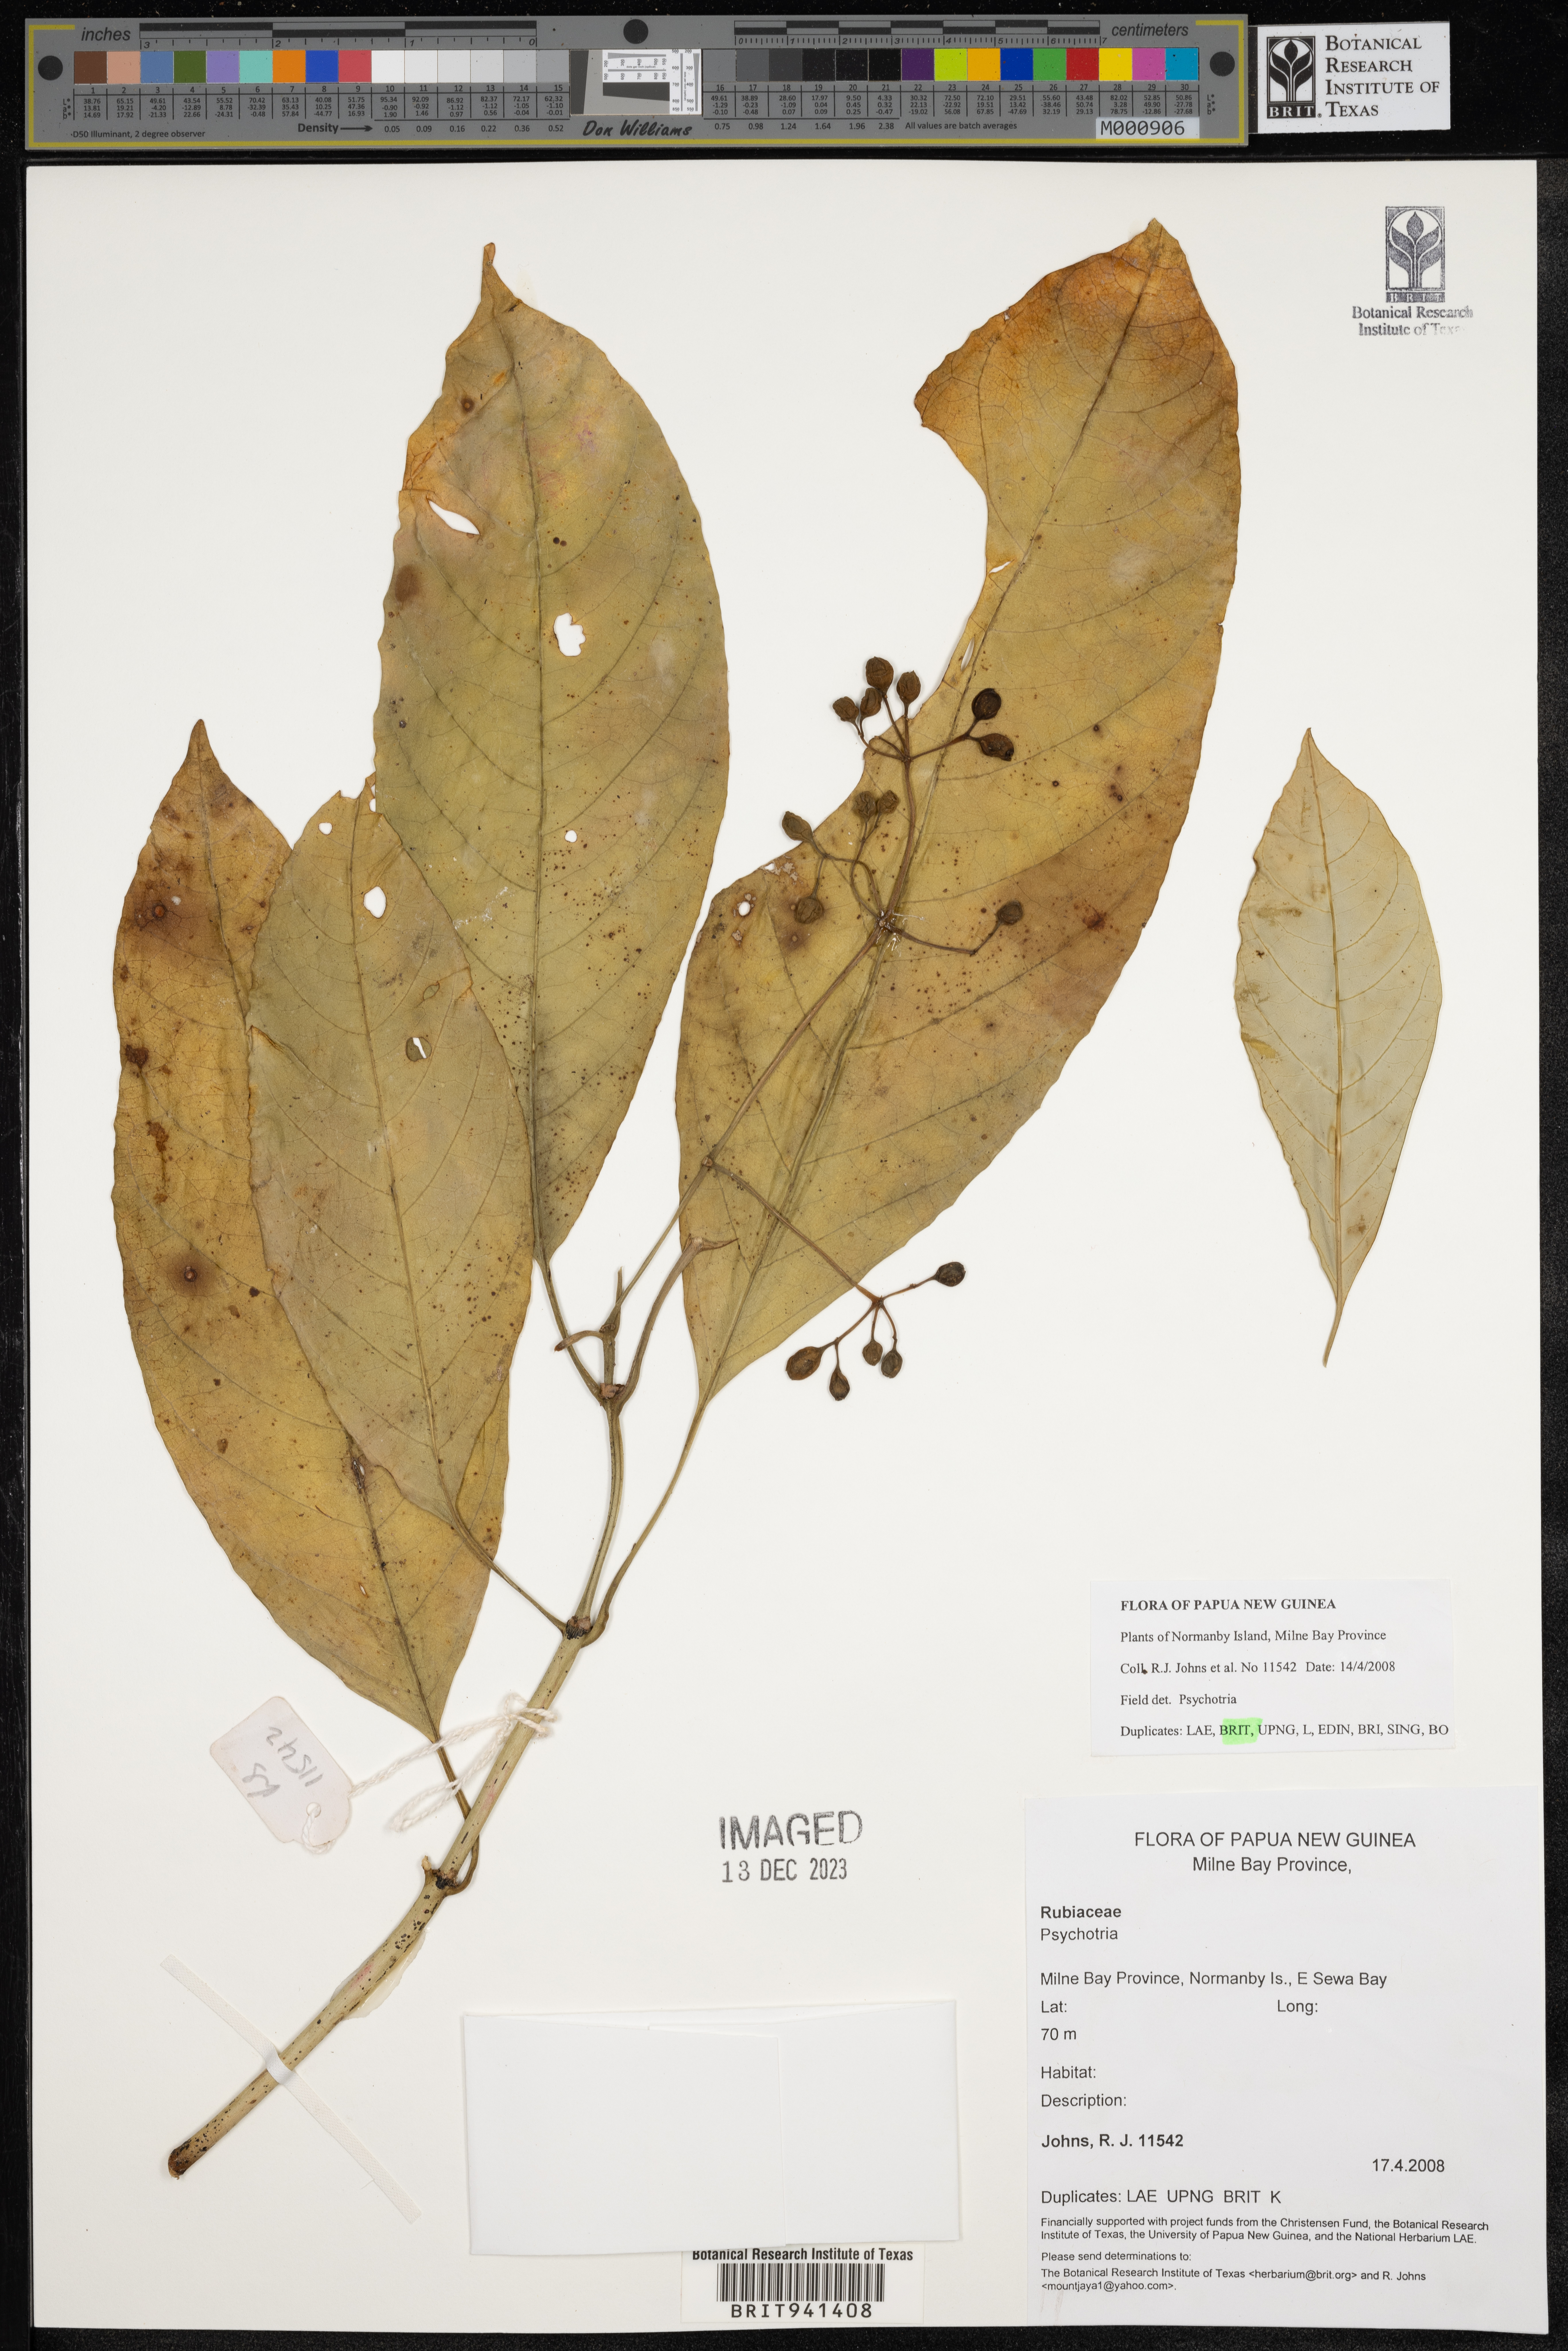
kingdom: Plantae
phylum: Tracheophyta
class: Magnoliopsida
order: Gentianales
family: Rubiaceae
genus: Psychotria
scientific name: Psychotria
